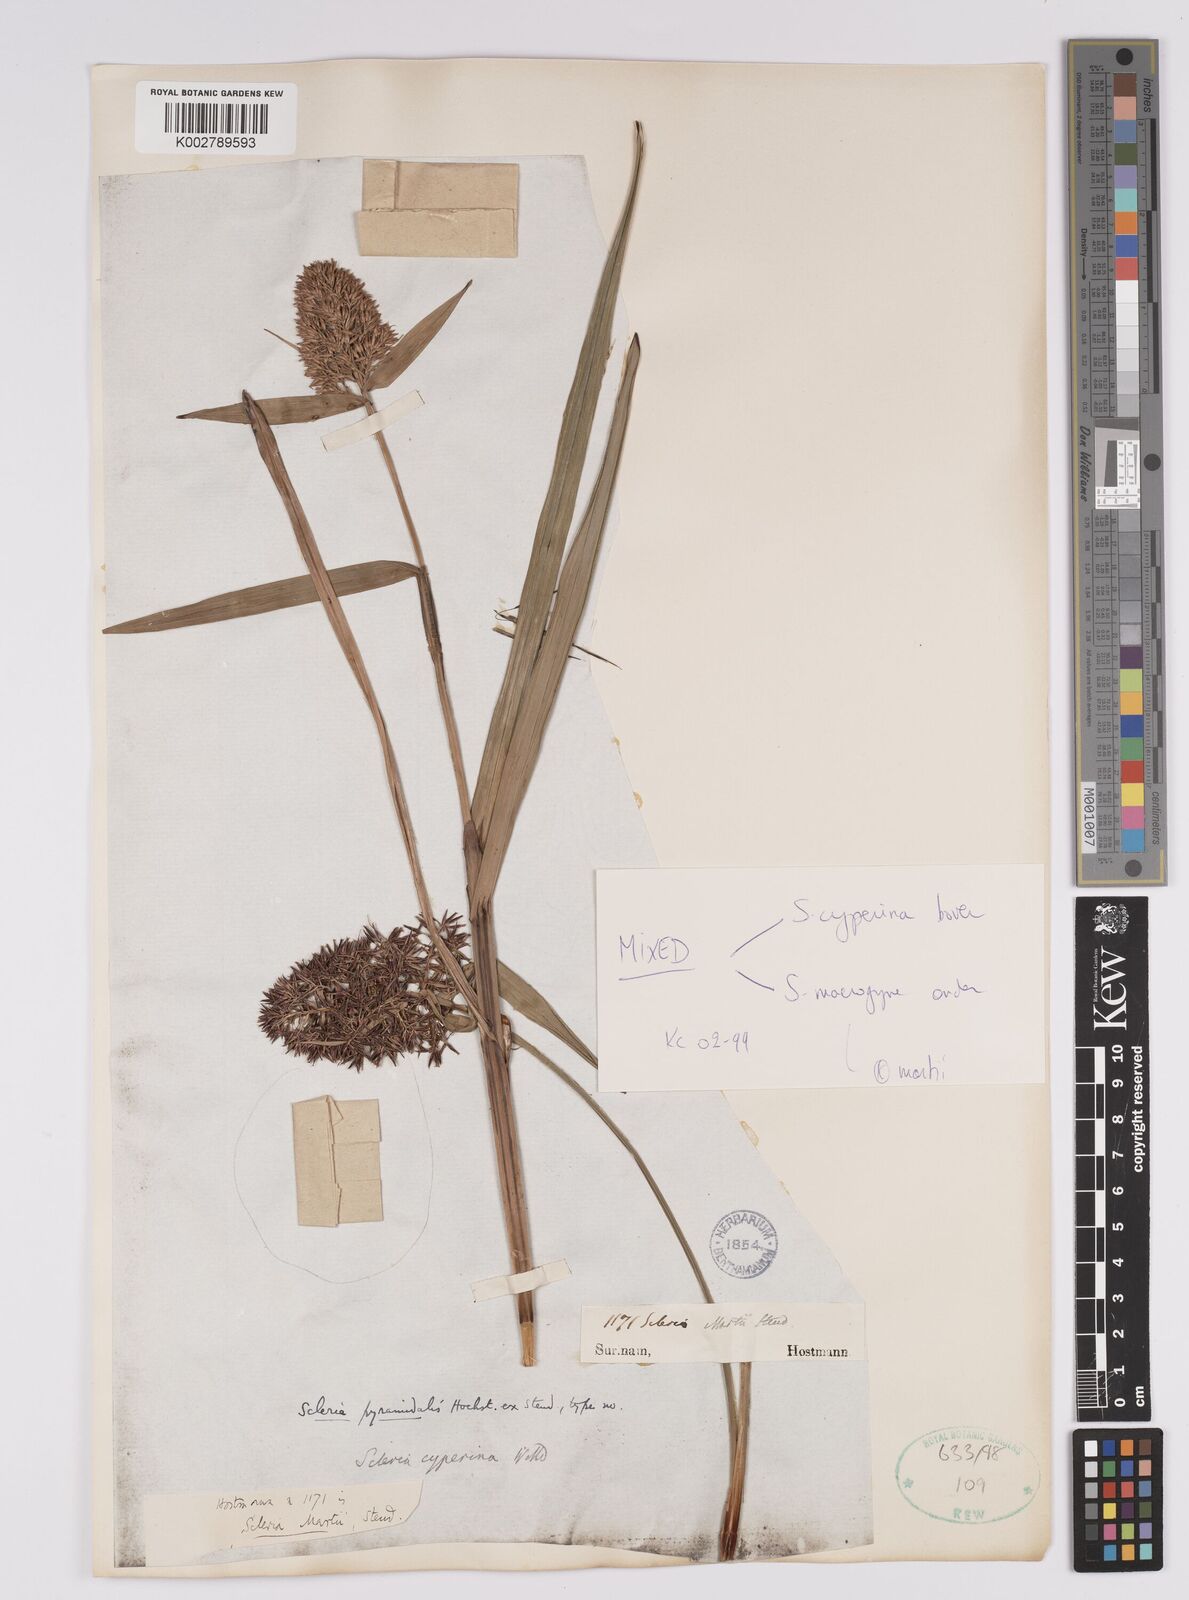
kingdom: Plantae
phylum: Tracheophyta
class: Liliopsida
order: Poales
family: Cyperaceae
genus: Scleria
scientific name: Scleria cyperina
